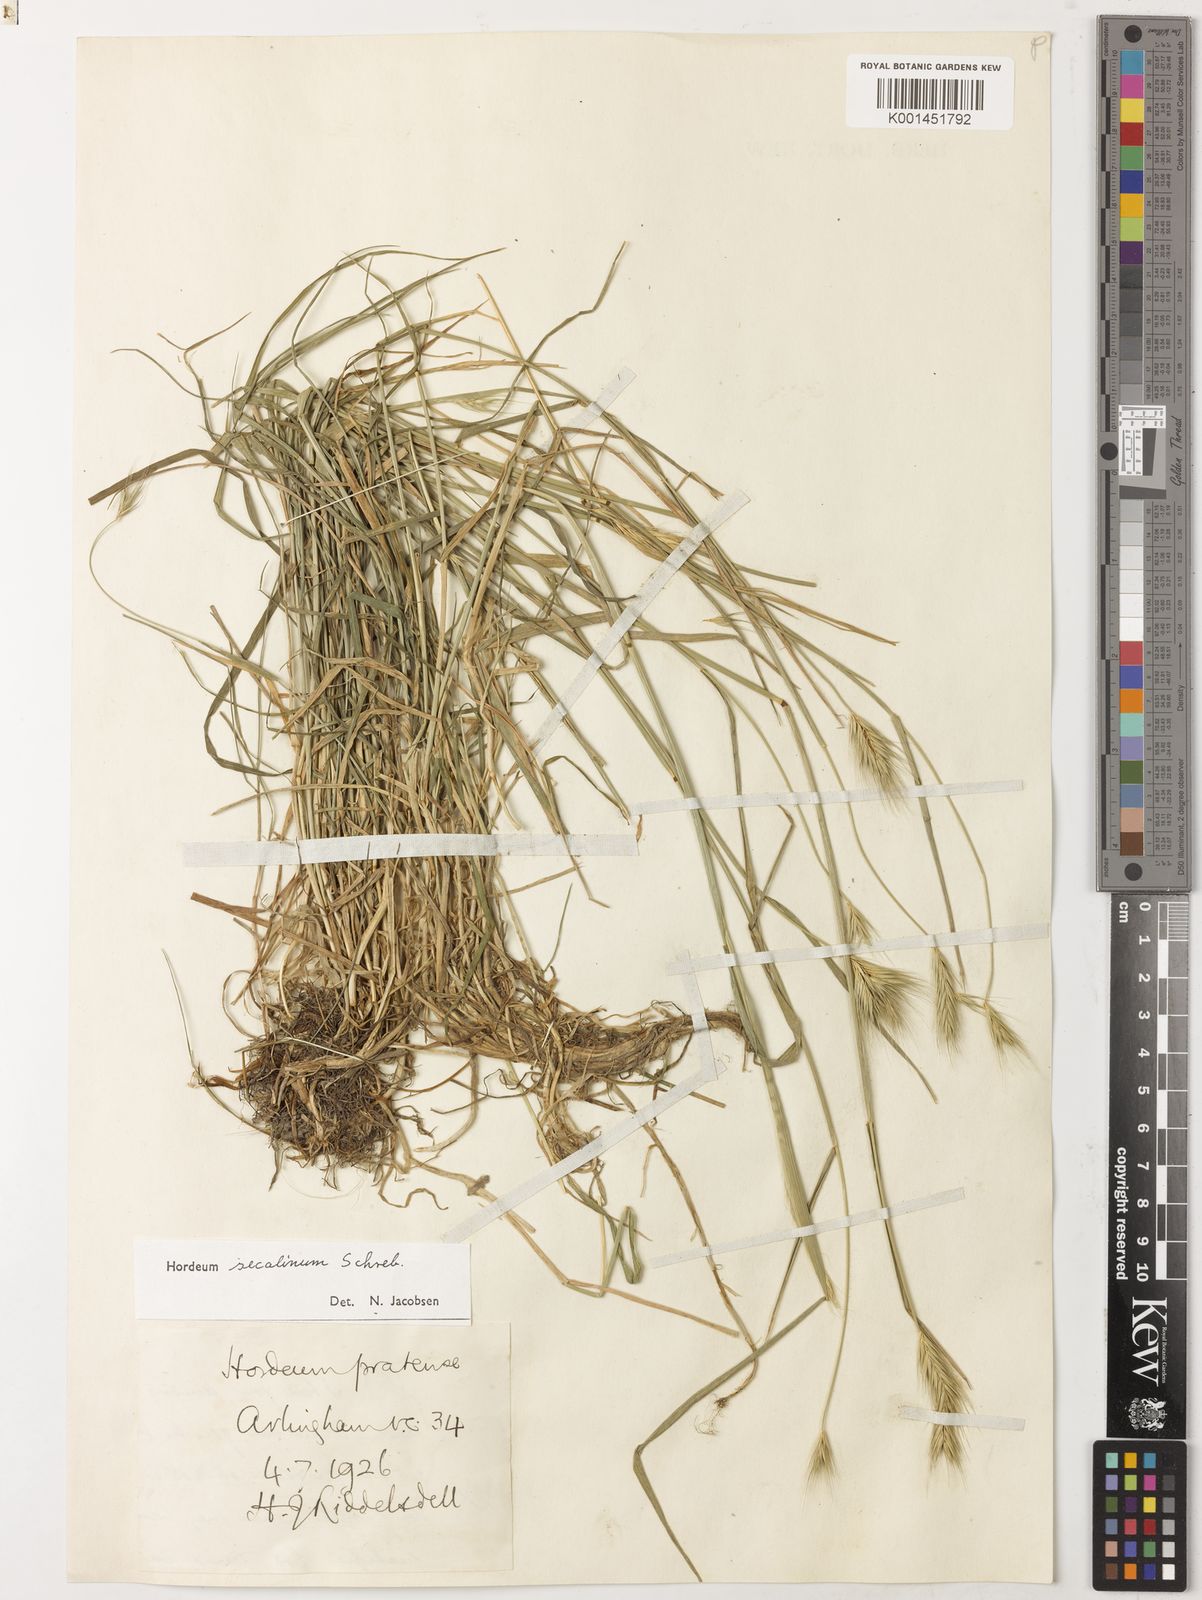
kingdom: Plantae
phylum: Tracheophyta
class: Liliopsida
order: Poales
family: Poaceae
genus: Hordeum
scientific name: Hordeum secalinum
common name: Meadow barley
